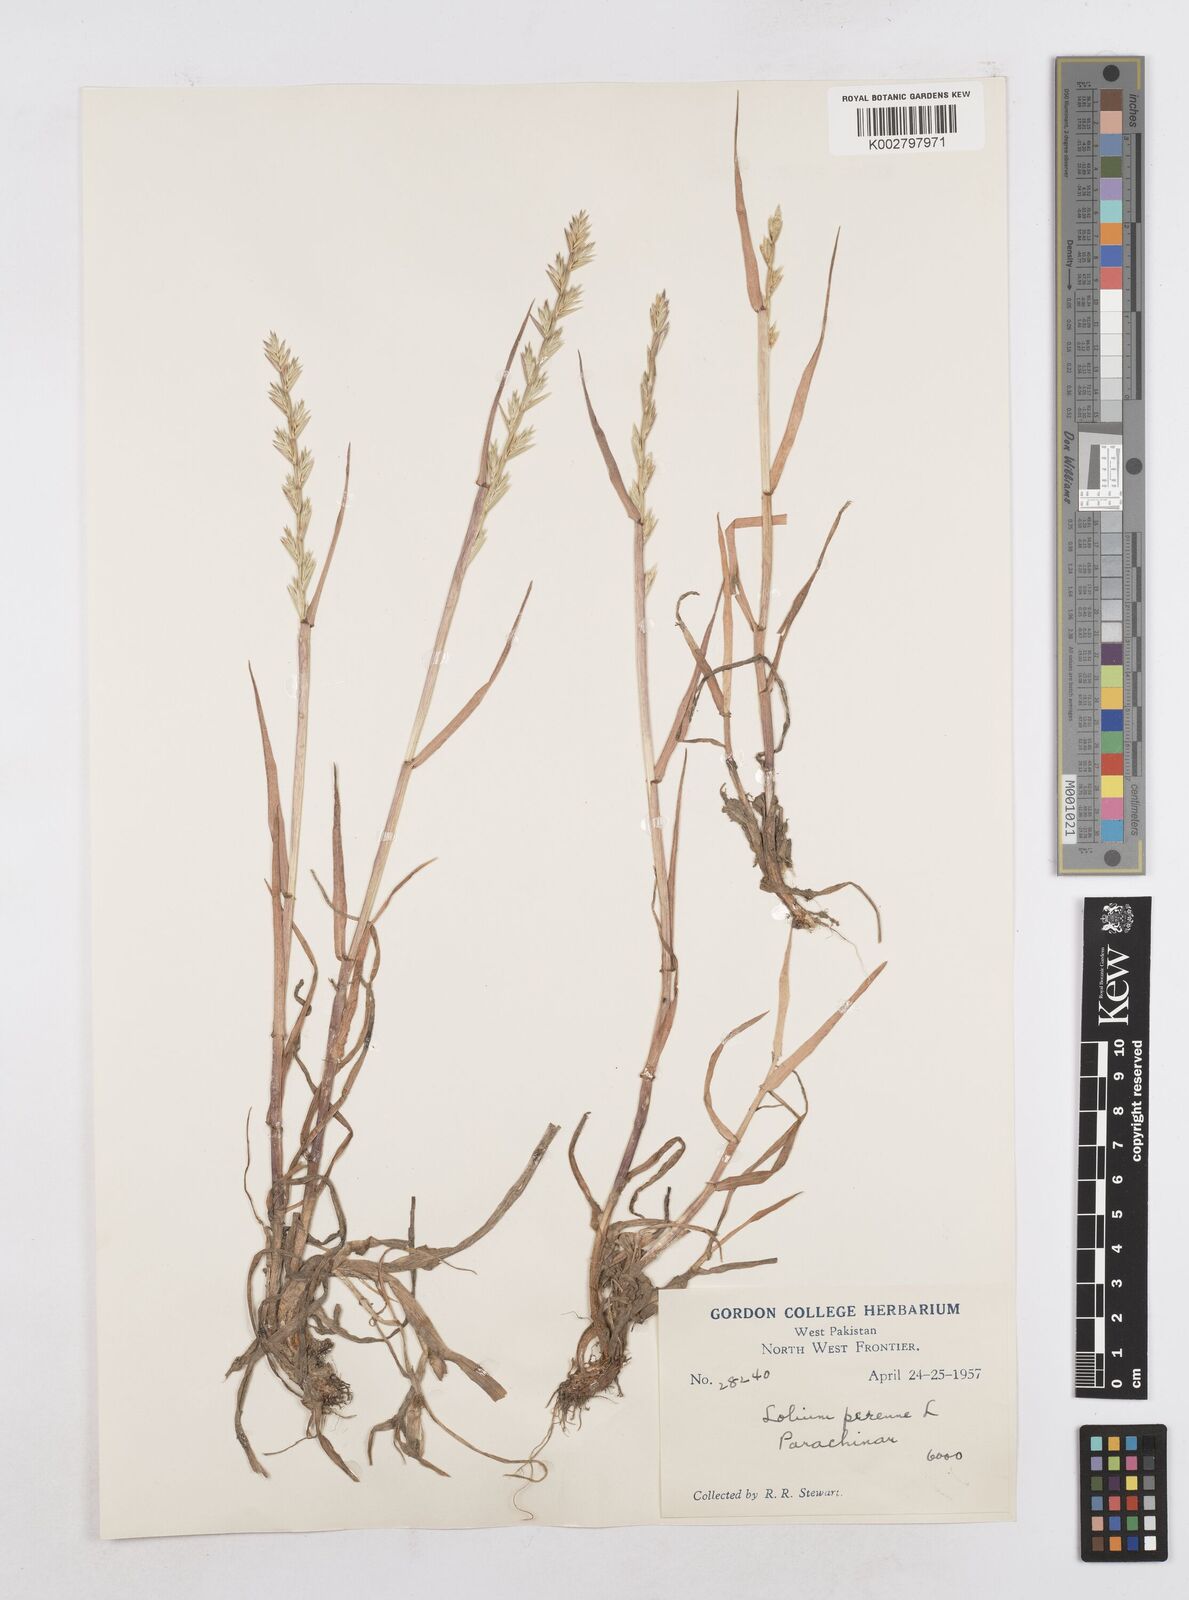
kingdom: Plantae
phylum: Tracheophyta
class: Liliopsida
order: Poales
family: Poaceae
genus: Lolium
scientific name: Lolium perenne
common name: Perennial ryegrass
